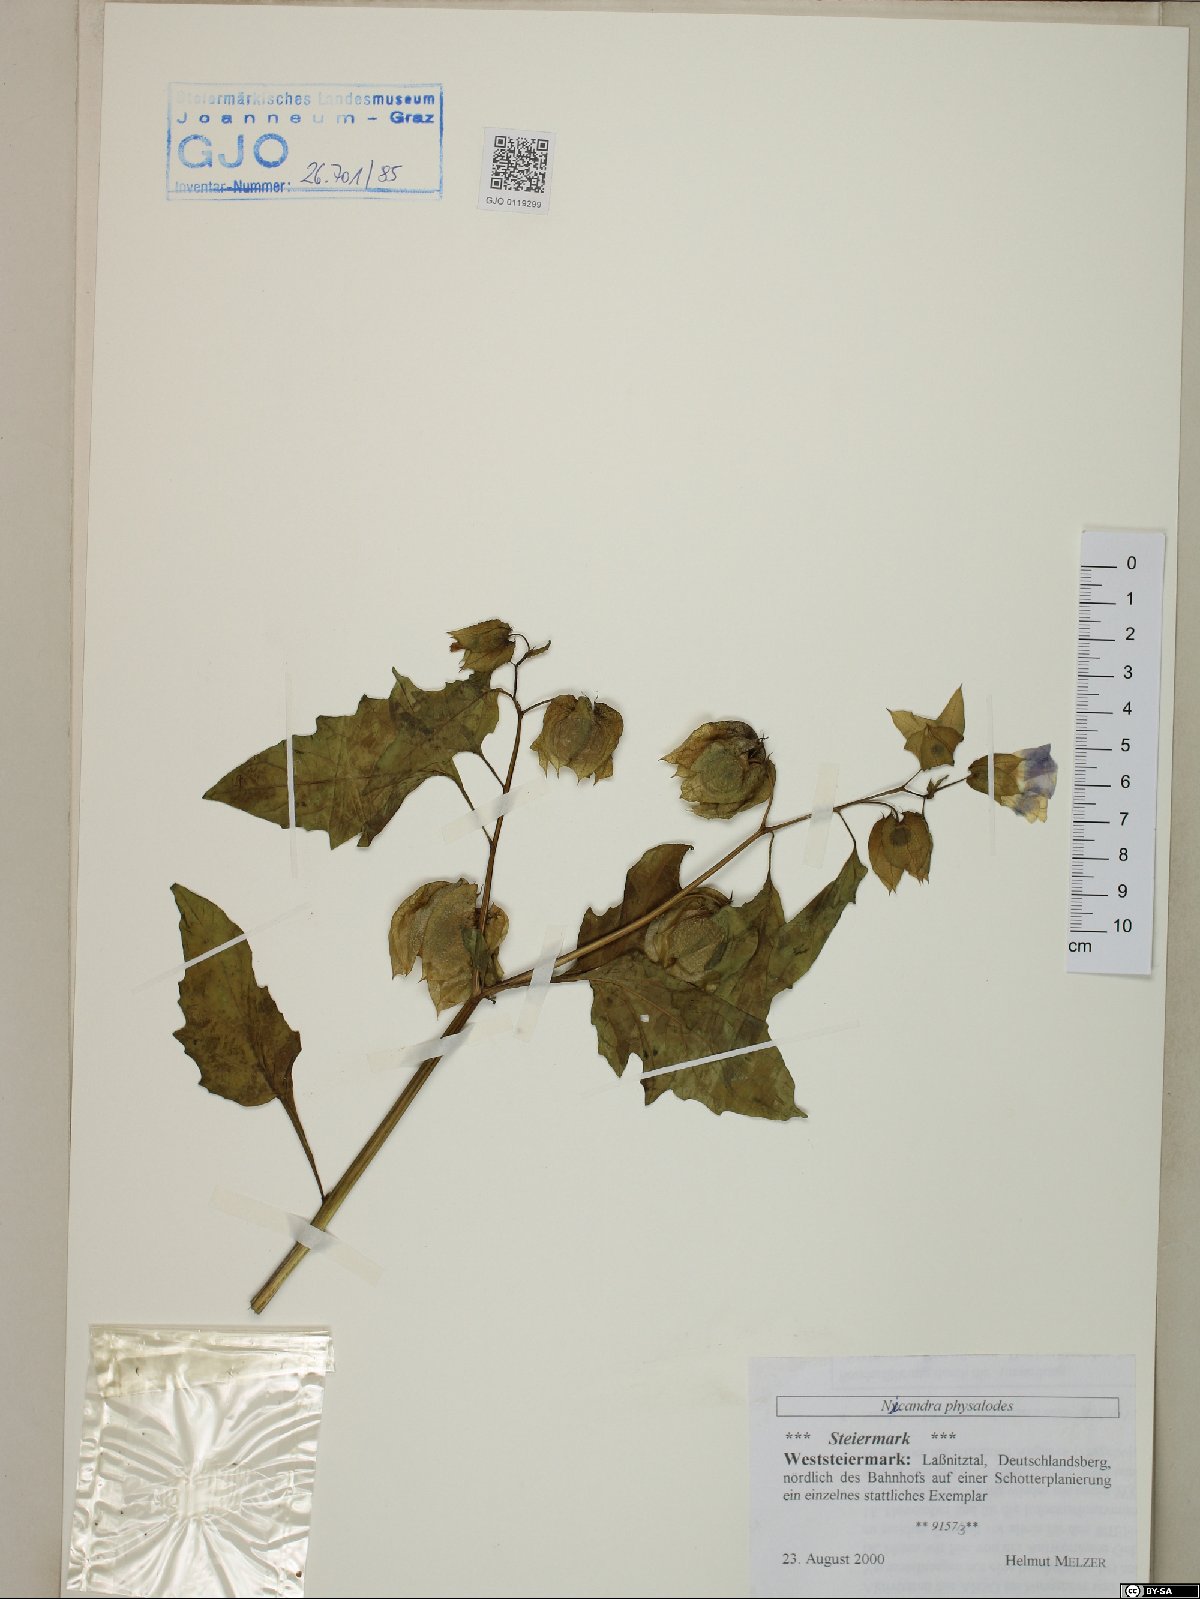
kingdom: Plantae
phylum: Tracheophyta
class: Magnoliopsida
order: Solanales
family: Solanaceae
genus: Nicandra
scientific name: Nicandra physalodes
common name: Apple-of-peru
